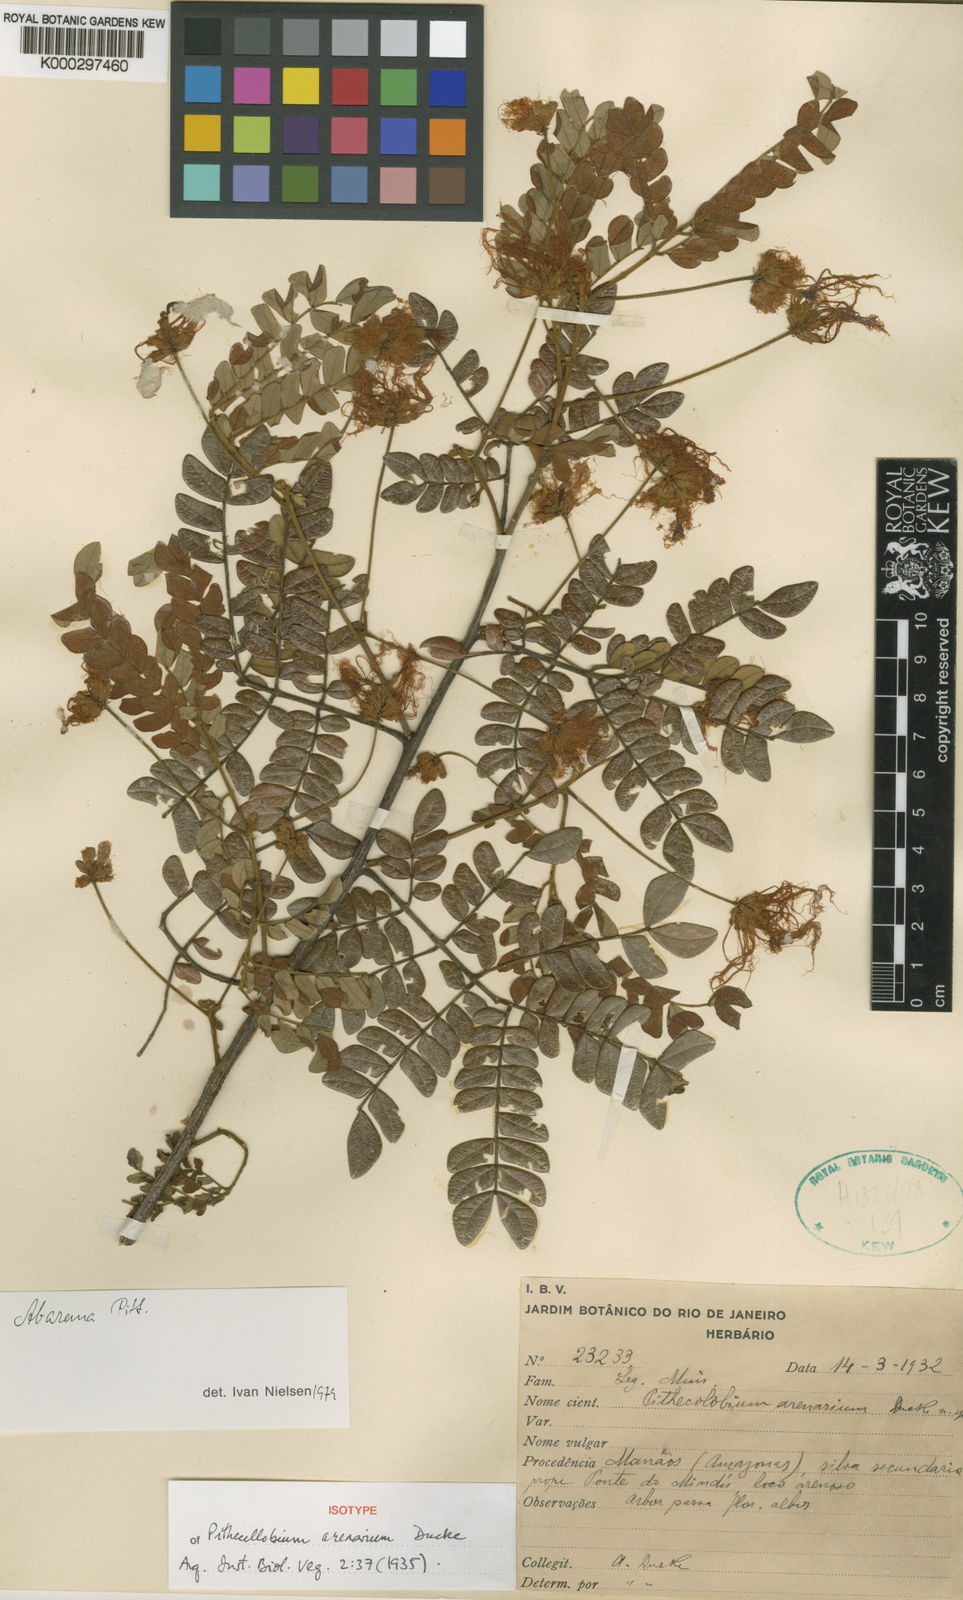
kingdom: Plantae
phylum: Tracheophyta
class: Magnoliopsida
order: Fabales
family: Fabaceae
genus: Jupunba
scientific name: Jupunba barbouriana
